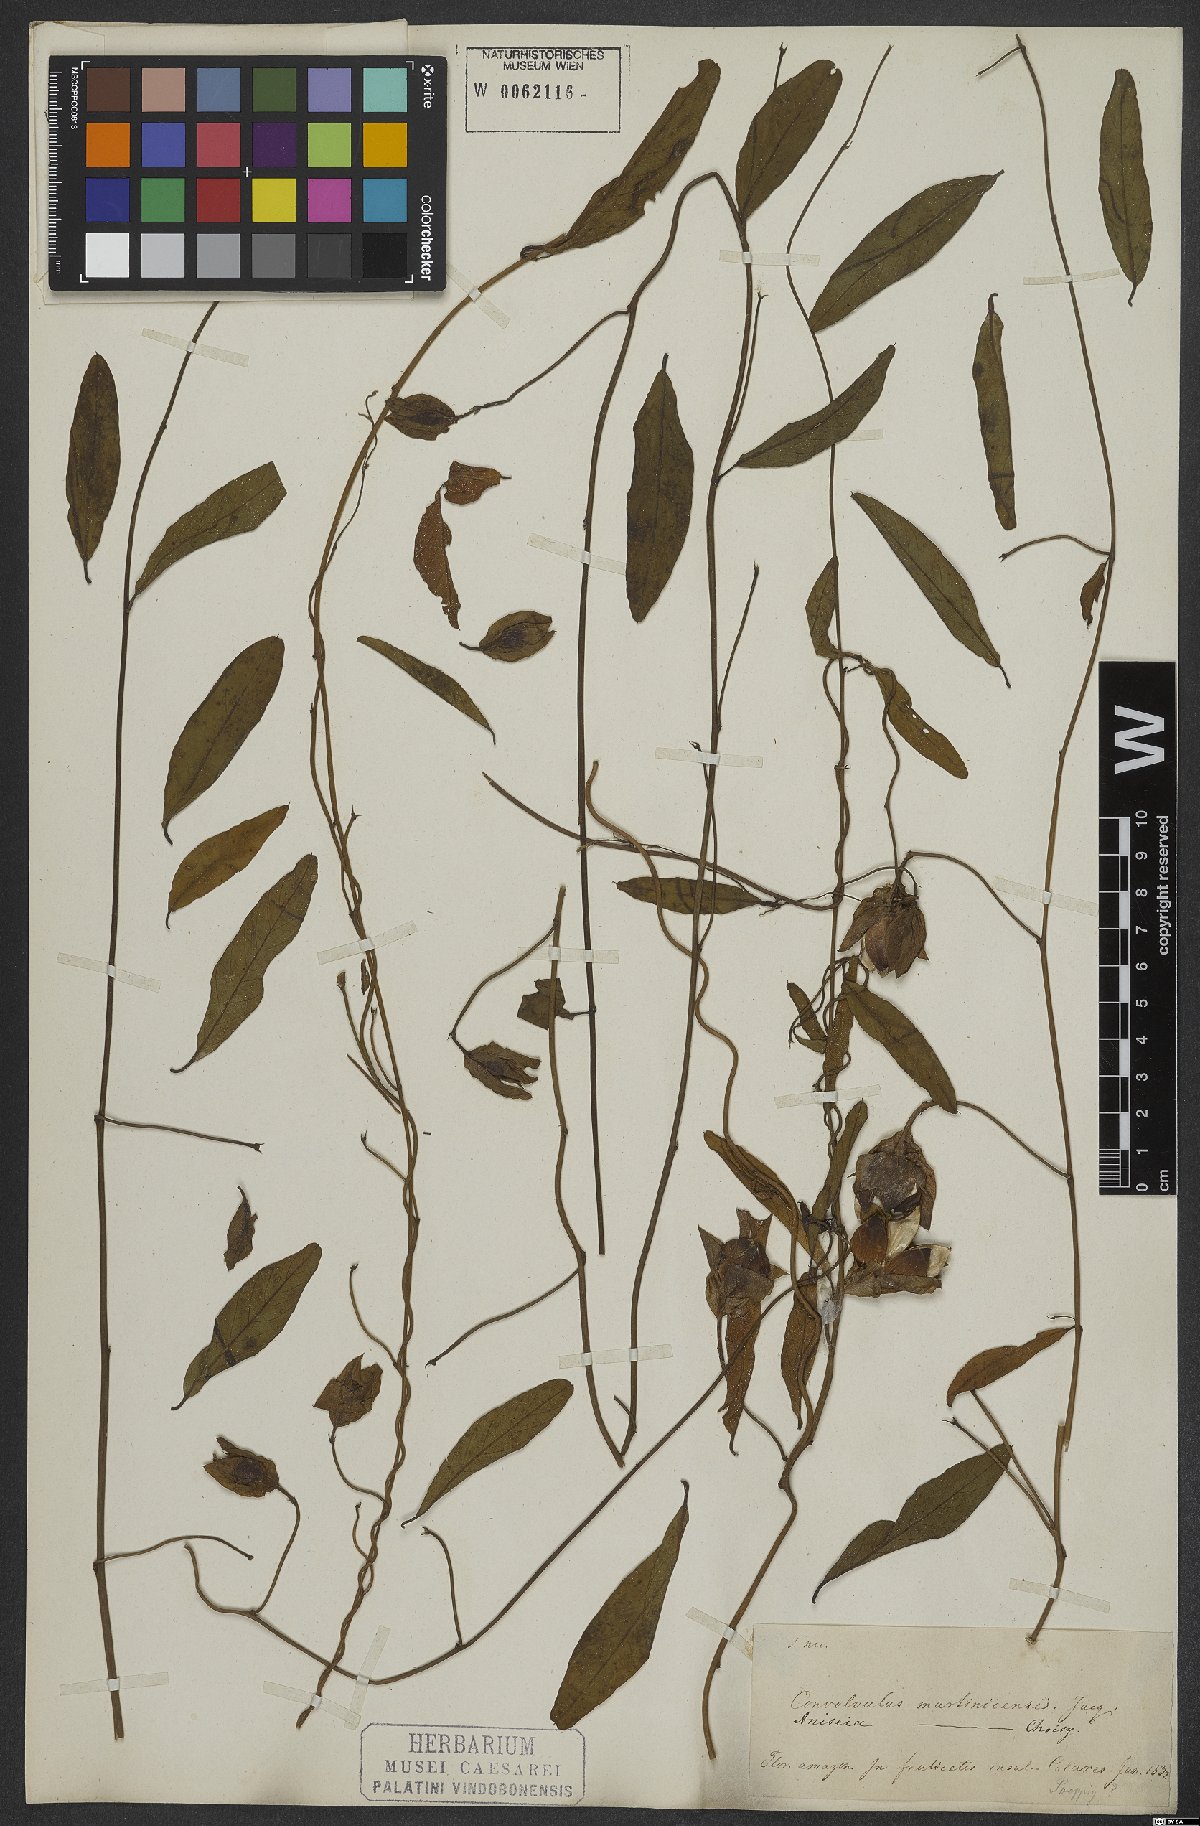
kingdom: Plantae
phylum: Tracheophyta
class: Magnoliopsida
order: Solanales
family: Convolvulaceae
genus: Aniseia
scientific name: Aniseia martinicensis
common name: Kulayadambu
